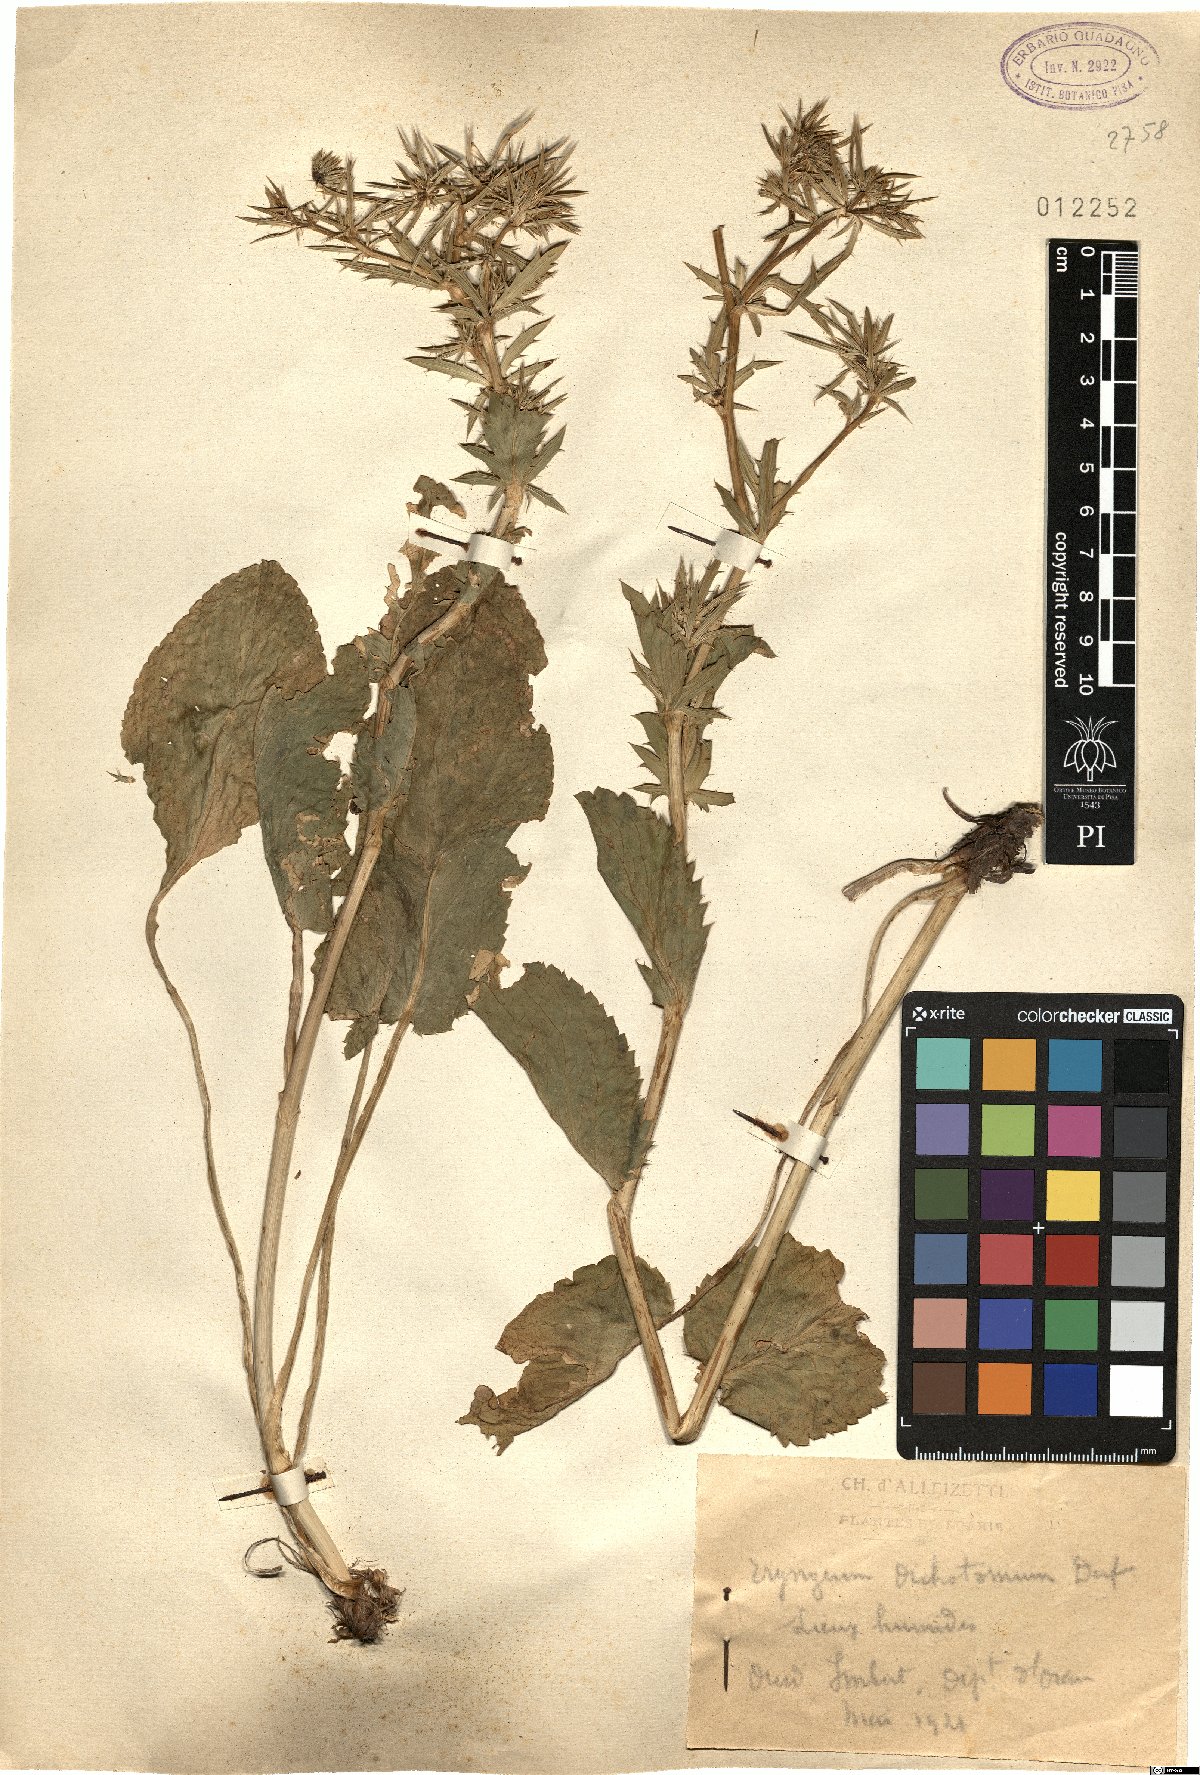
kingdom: Plantae
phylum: Tracheophyta
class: Magnoliopsida
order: Apiales
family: Apiaceae
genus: Eryngium
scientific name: Eryngium dichotomum
